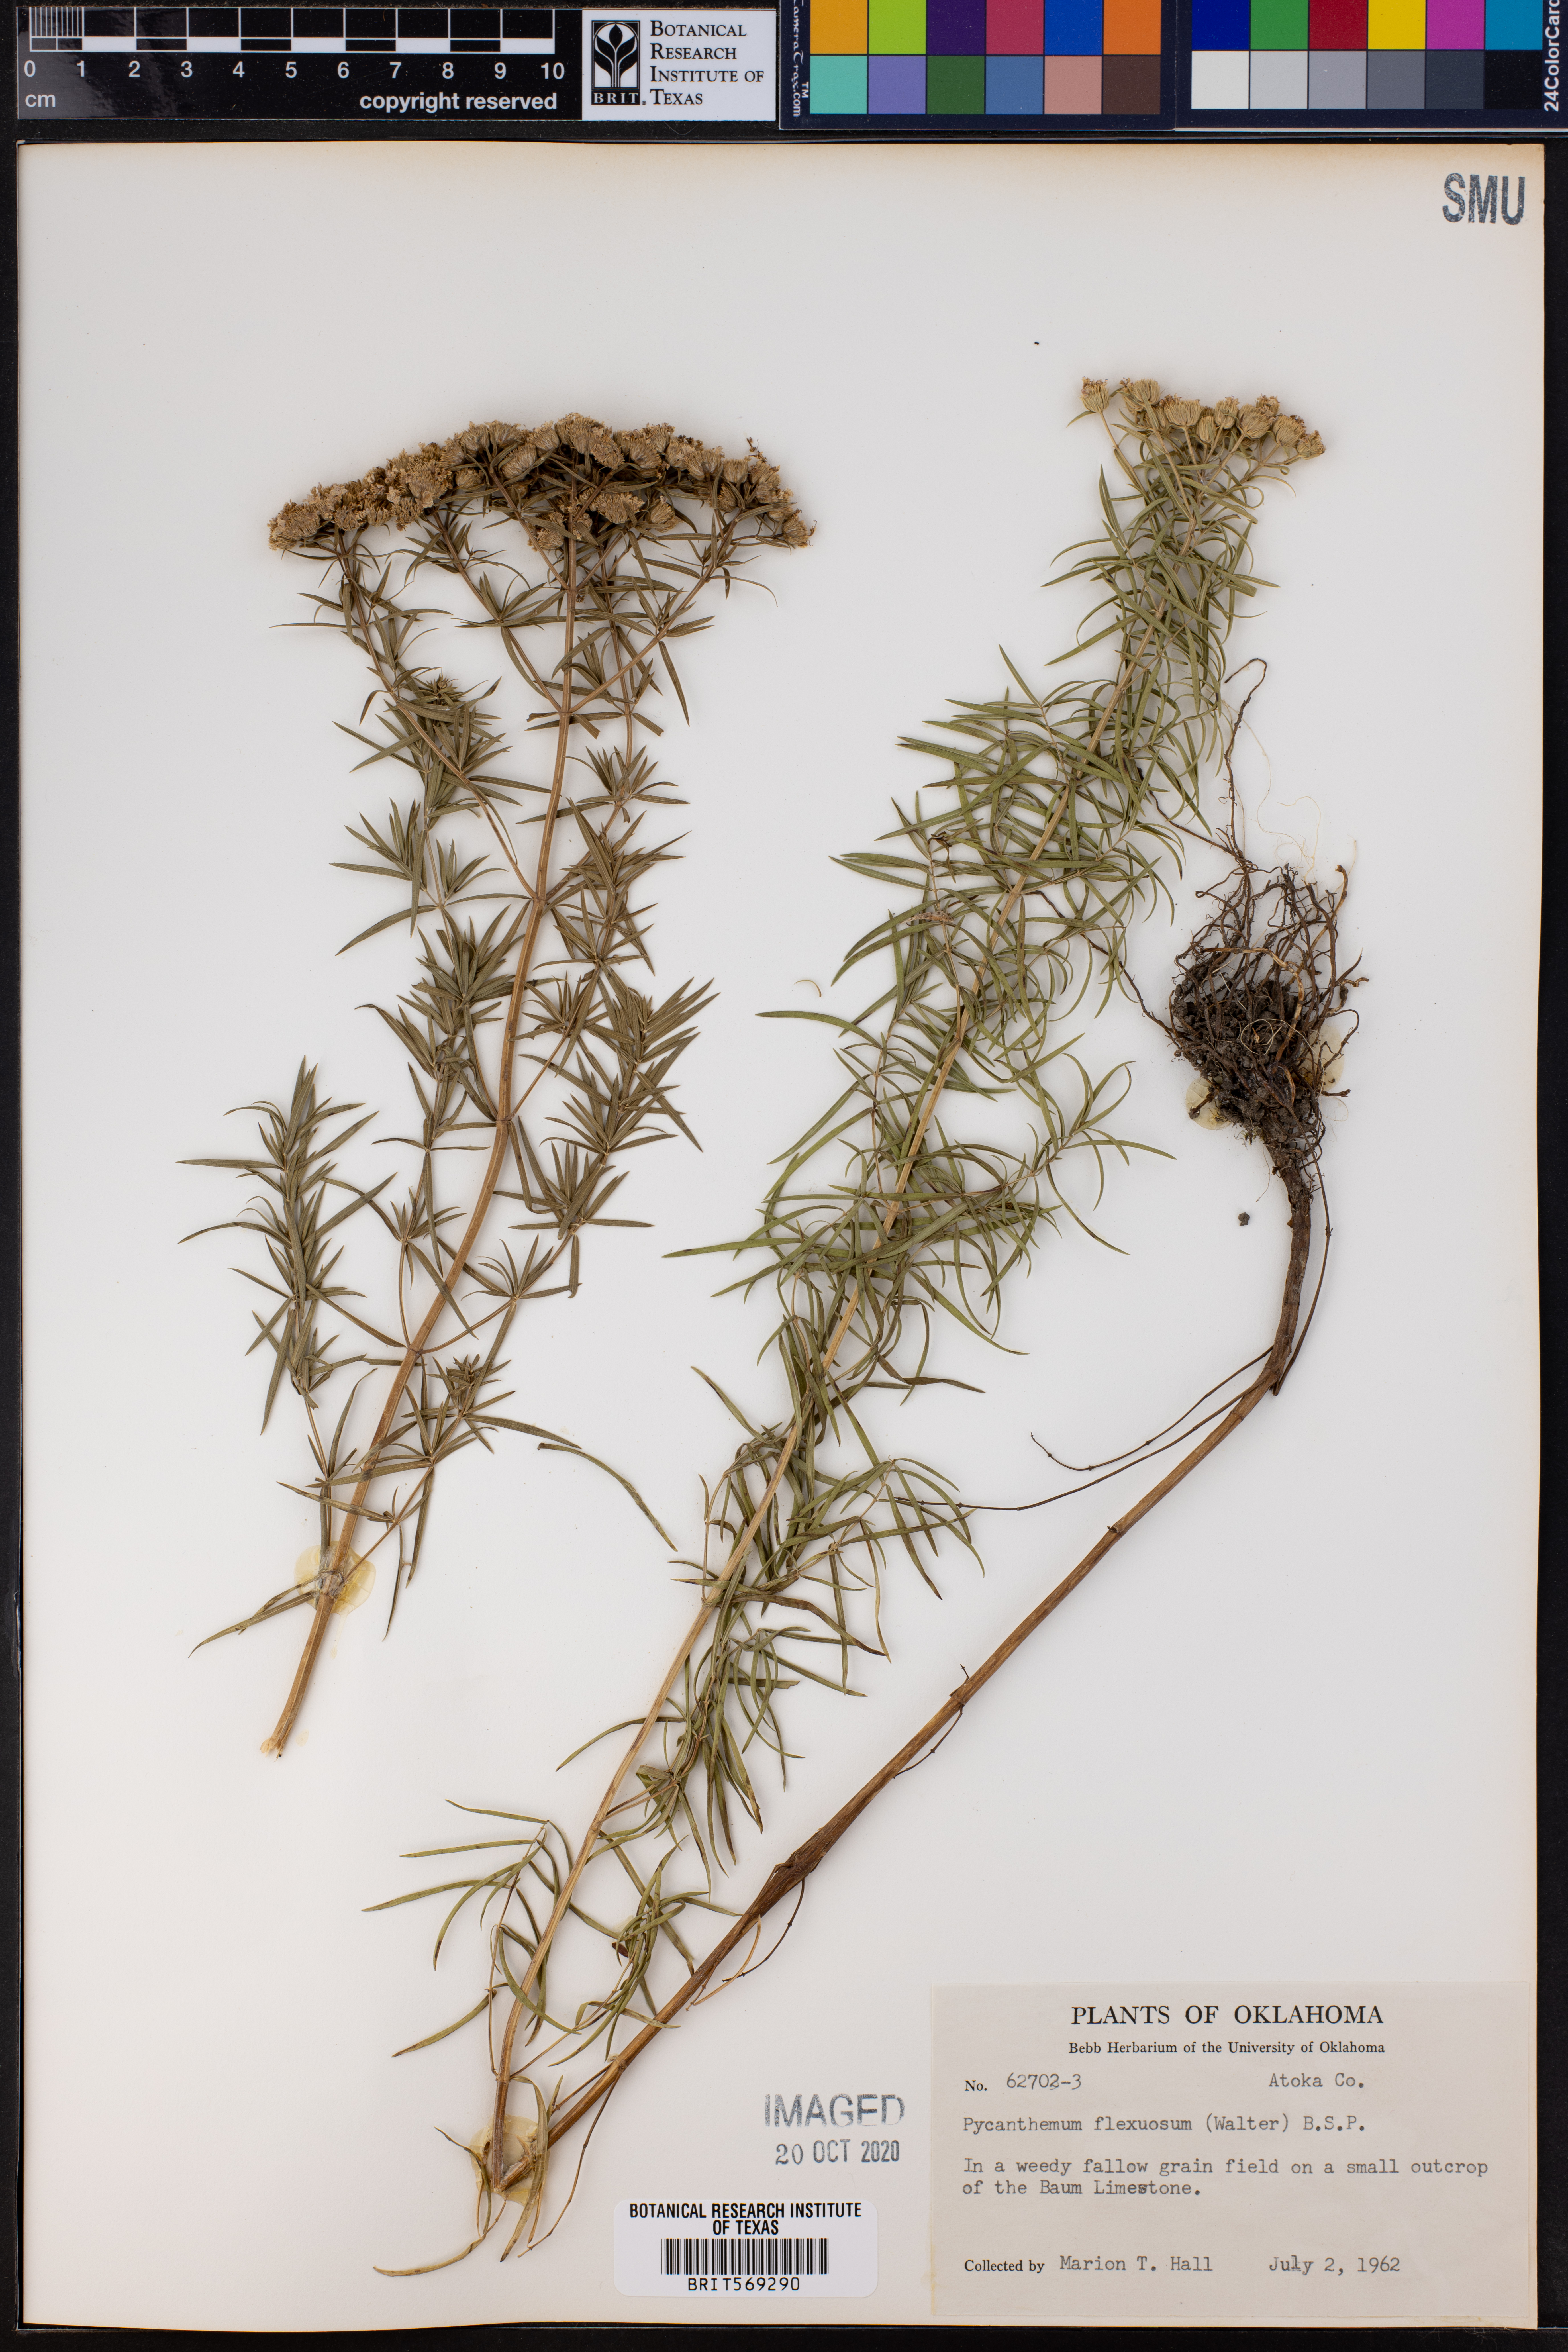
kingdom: Plantae
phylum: Tracheophyta
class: Magnoliopsida
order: Lamiales
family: Lamiaceae
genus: Pycnanthemum
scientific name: Pycnanthemum flexuosum
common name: Appalachian mountain-mint
